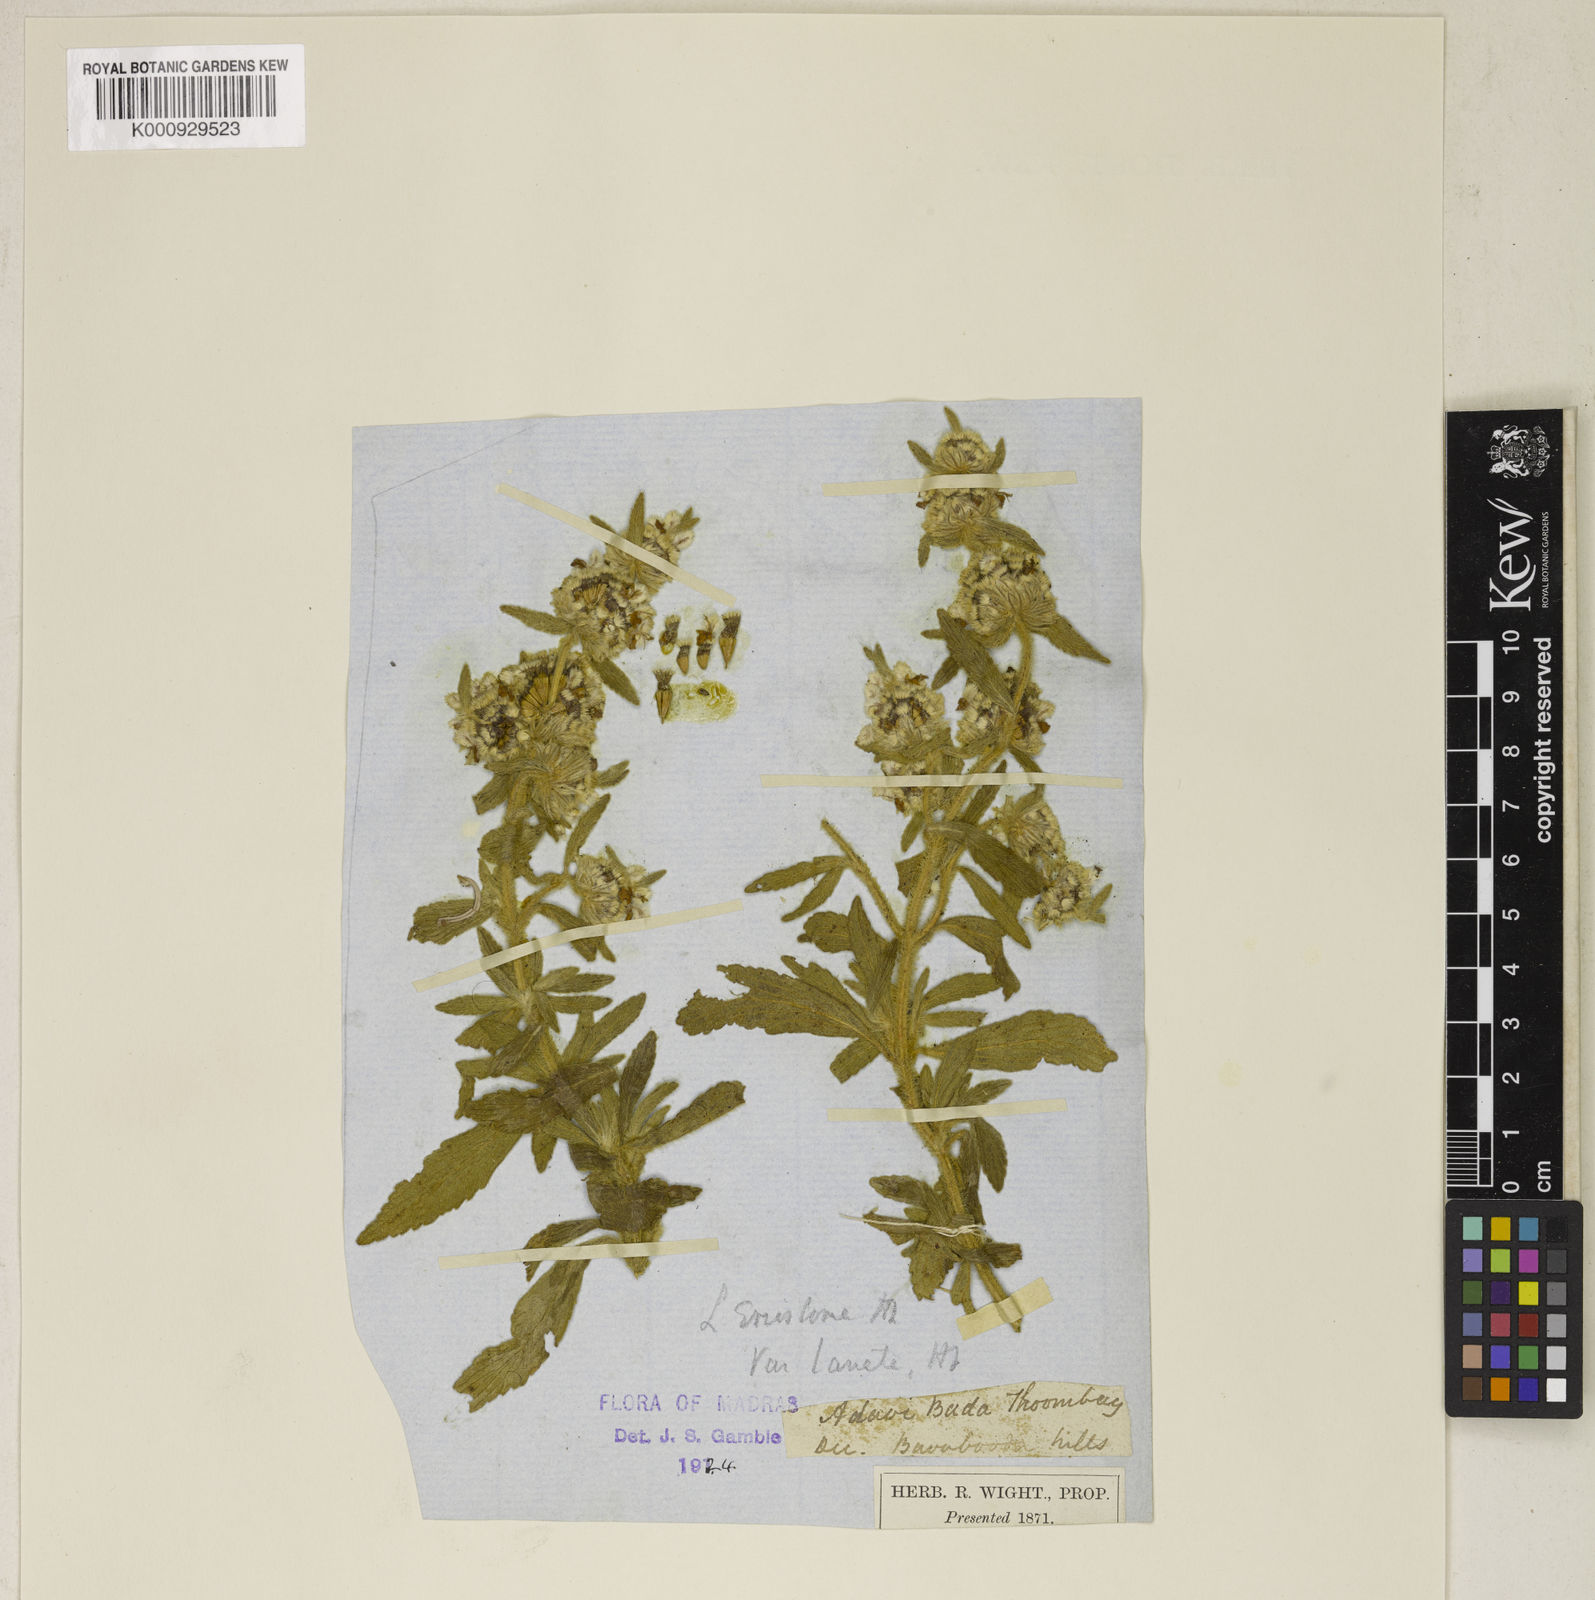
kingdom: Plantae
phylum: Tracheophyta
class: Magnoliopsida
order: Lamiales
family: Lamiaceae
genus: Leucas
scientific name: Leucas eriostoma
